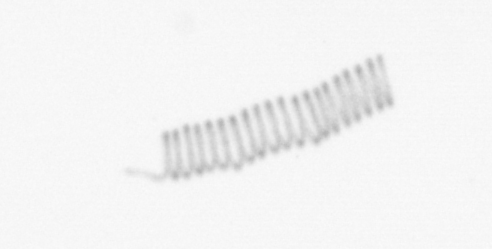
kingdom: Chromista
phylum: Ochrophyta
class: Bacillariophyceae
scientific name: Bacillariophyceae
